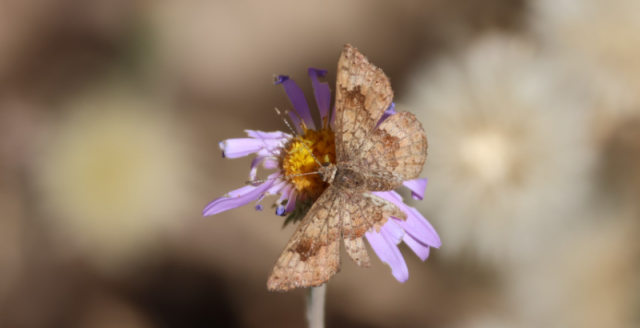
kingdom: Animalia
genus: Calephelis
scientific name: Calephelis nemesis
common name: Fatal Metalmark
